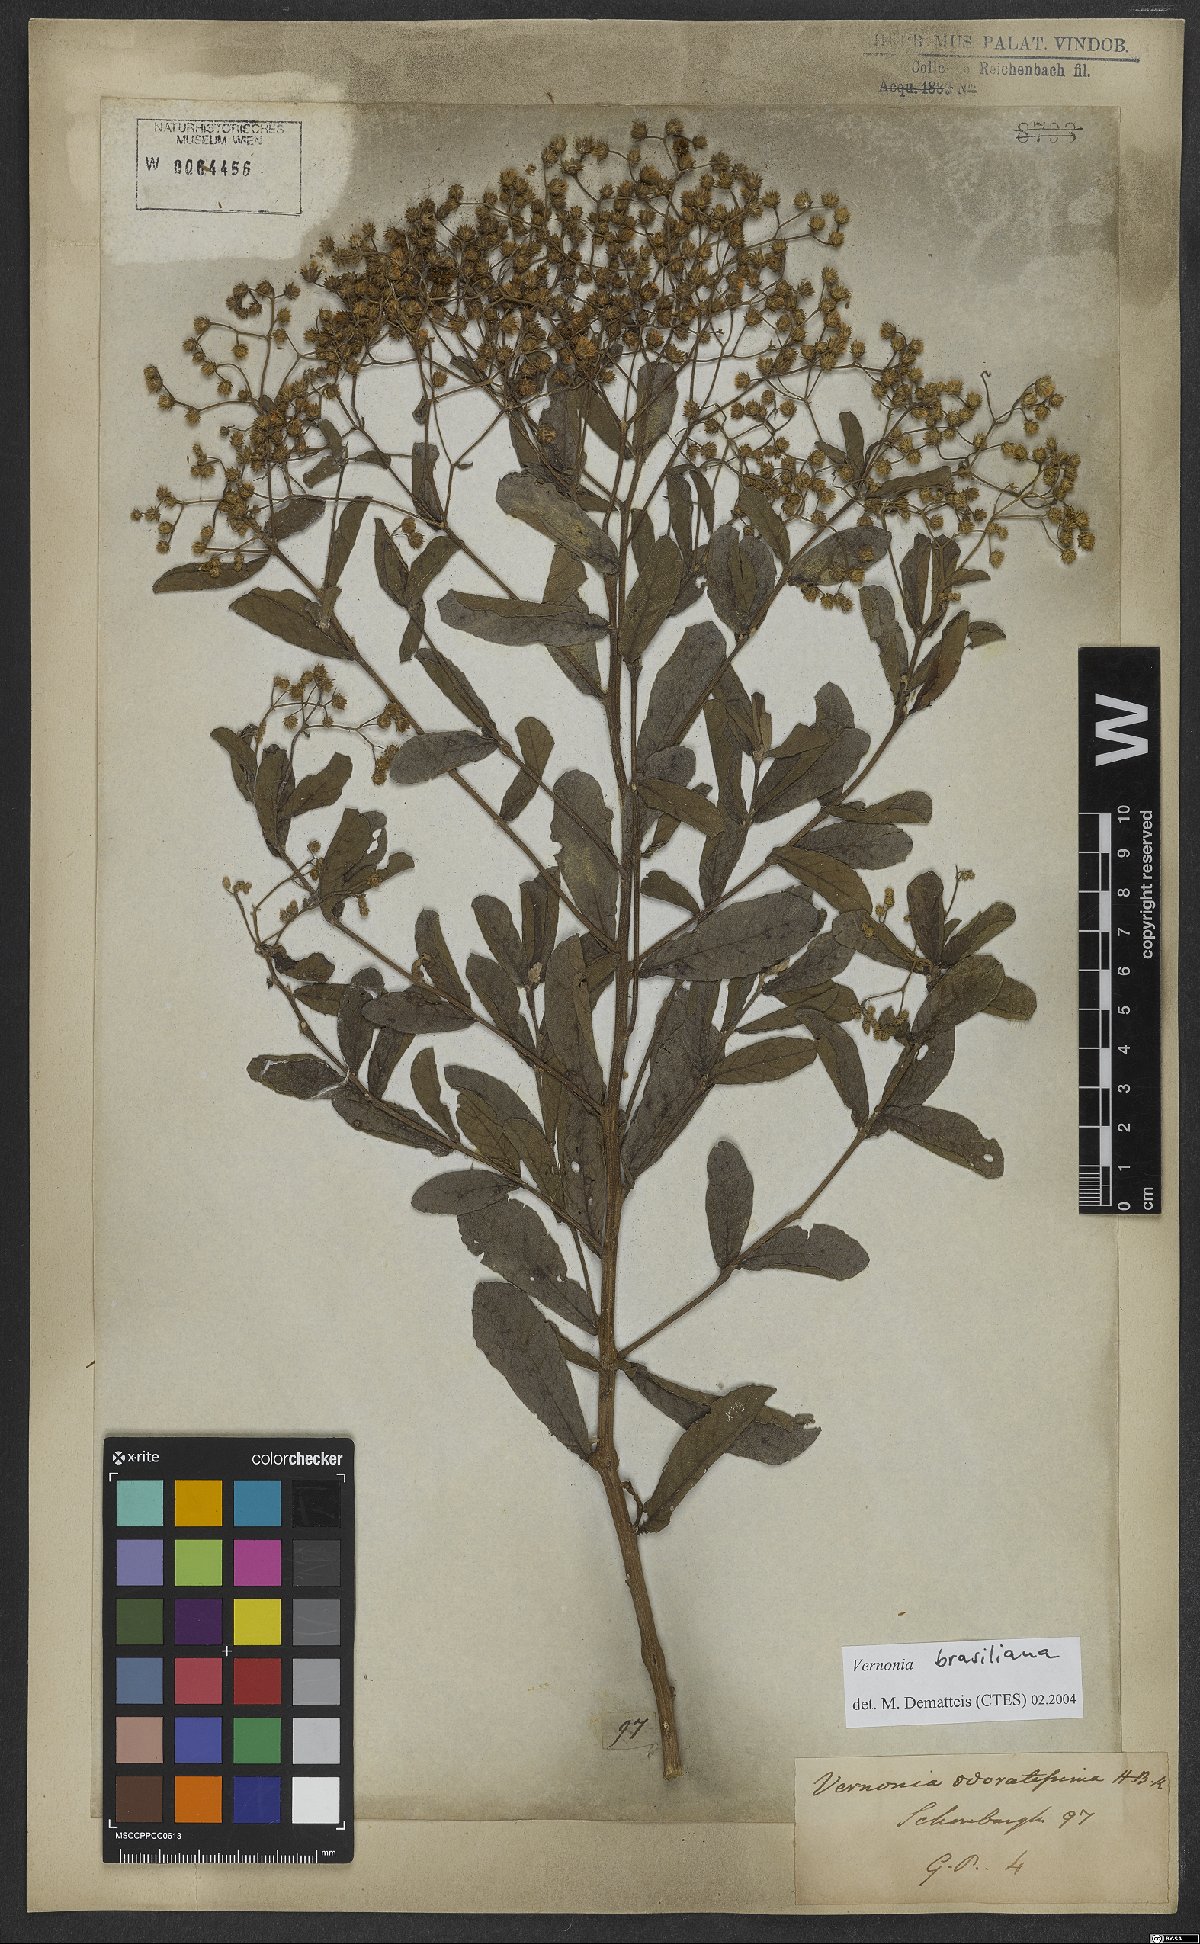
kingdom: Plantae
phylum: Tracheophyta
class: Magnoliopsida
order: Asterales
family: Asteraceae
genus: Vernonanthura
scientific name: Vernonanthura brasiliana
